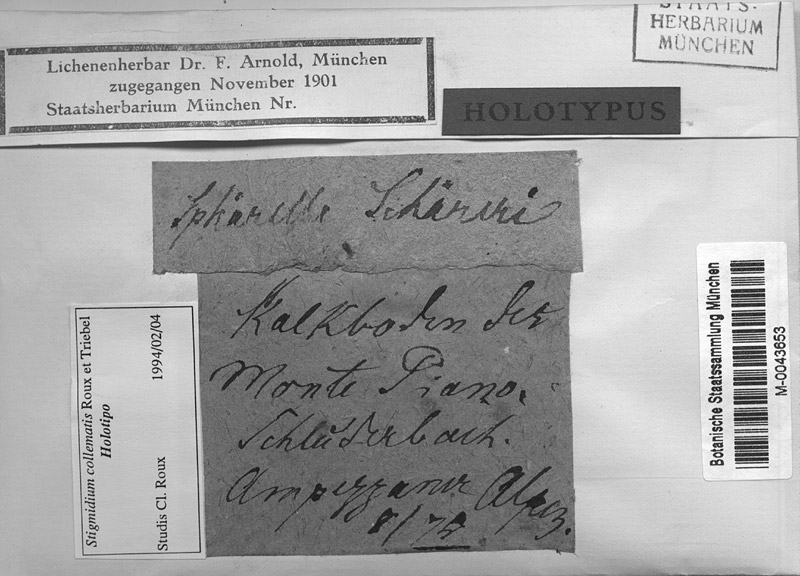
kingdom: Fungi
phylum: Ascomycota
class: Lecanoromycetes
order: Peltigerales
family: Collemataceae
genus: Enchylium
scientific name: Enchylium polycarpon
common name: Shaly jelly lichen
